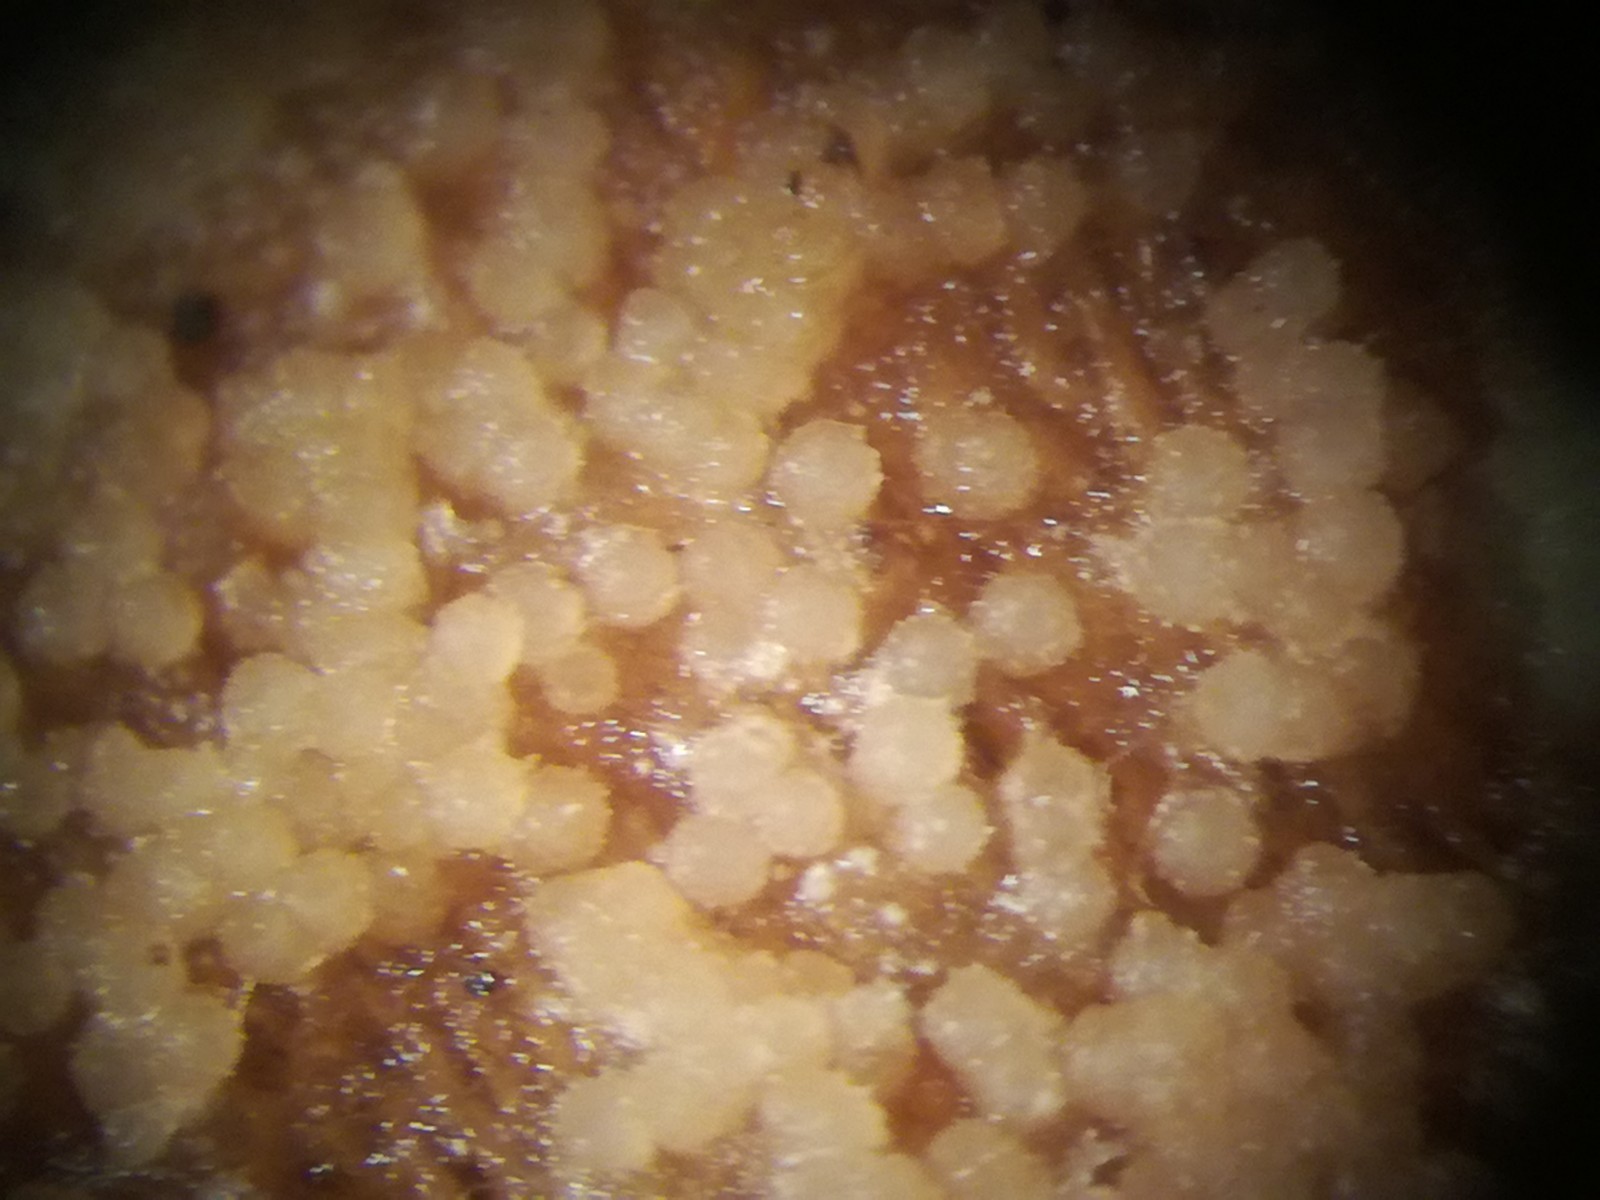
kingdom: Fungi
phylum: Ascomycota
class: Sordariomycetes
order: Hypocreales
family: Hypocreaceae
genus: Hypomyces
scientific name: Hypomyces
